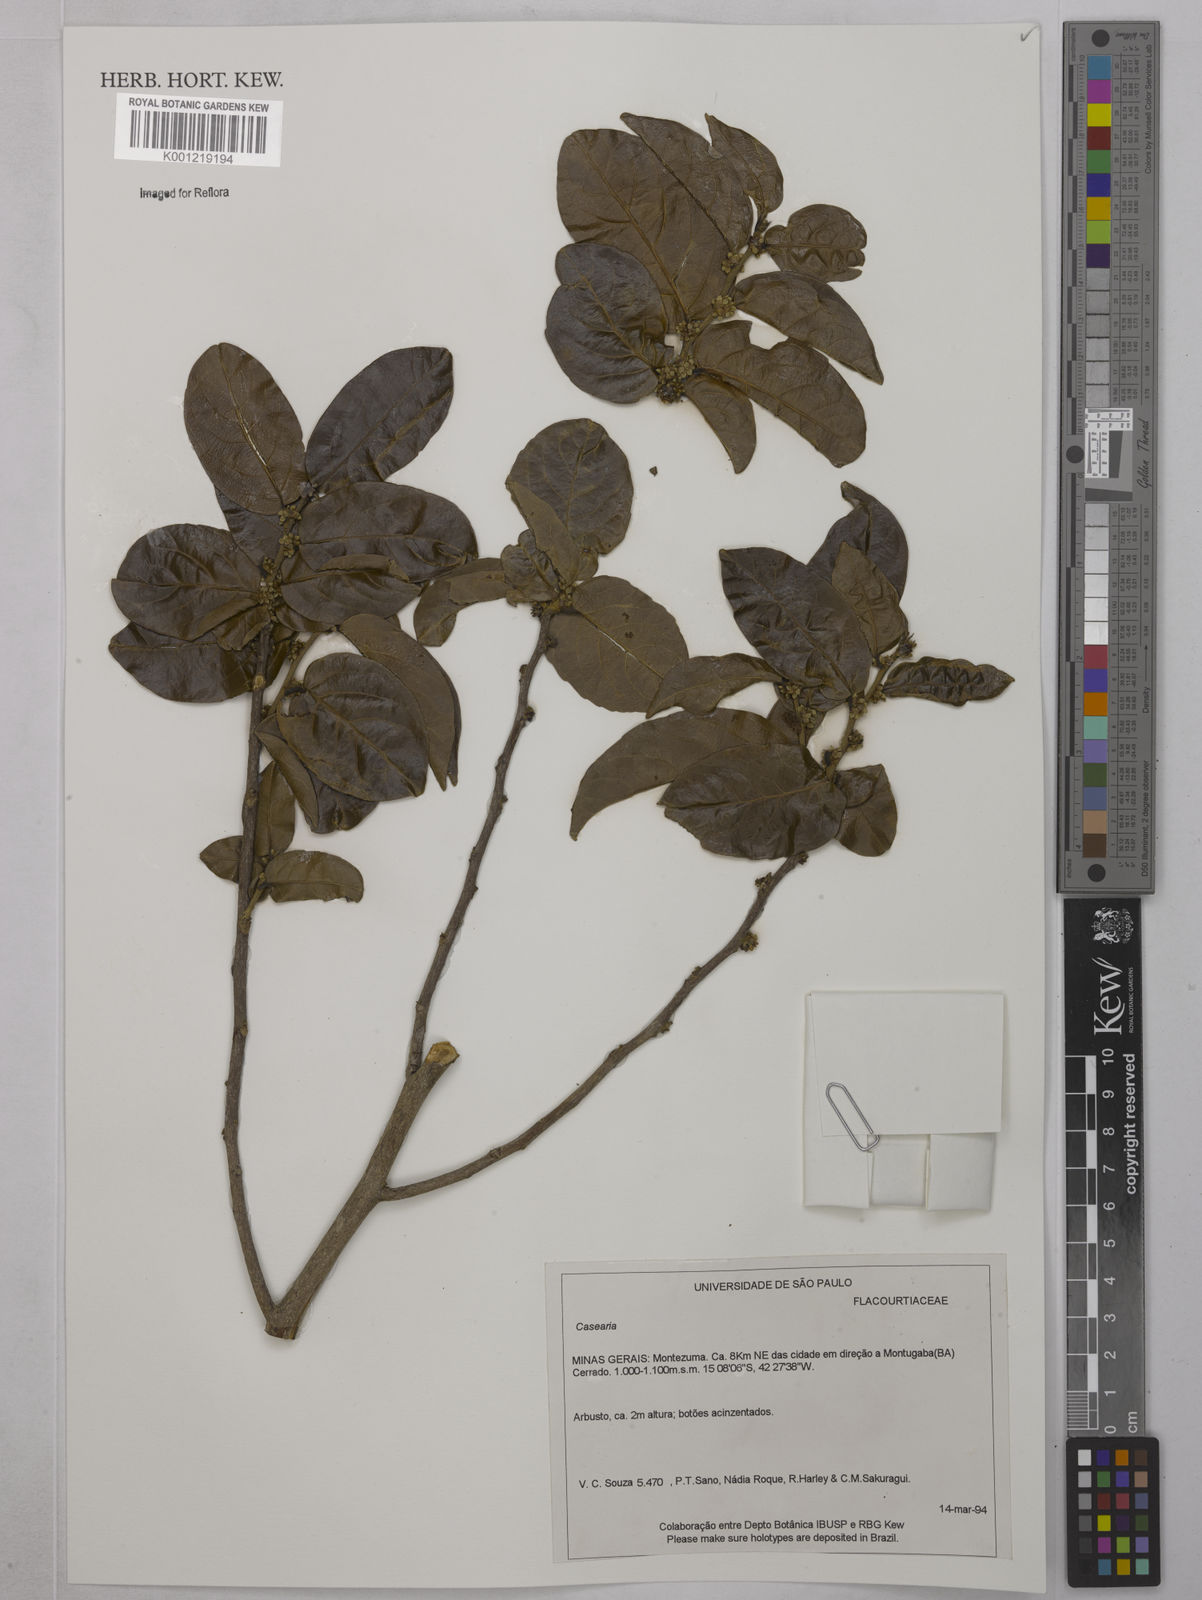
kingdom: Plantae
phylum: Tracheophyta
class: Magnoliopsida
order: Malpighiales
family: Salicaceae
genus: Casearia
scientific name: Casearia
